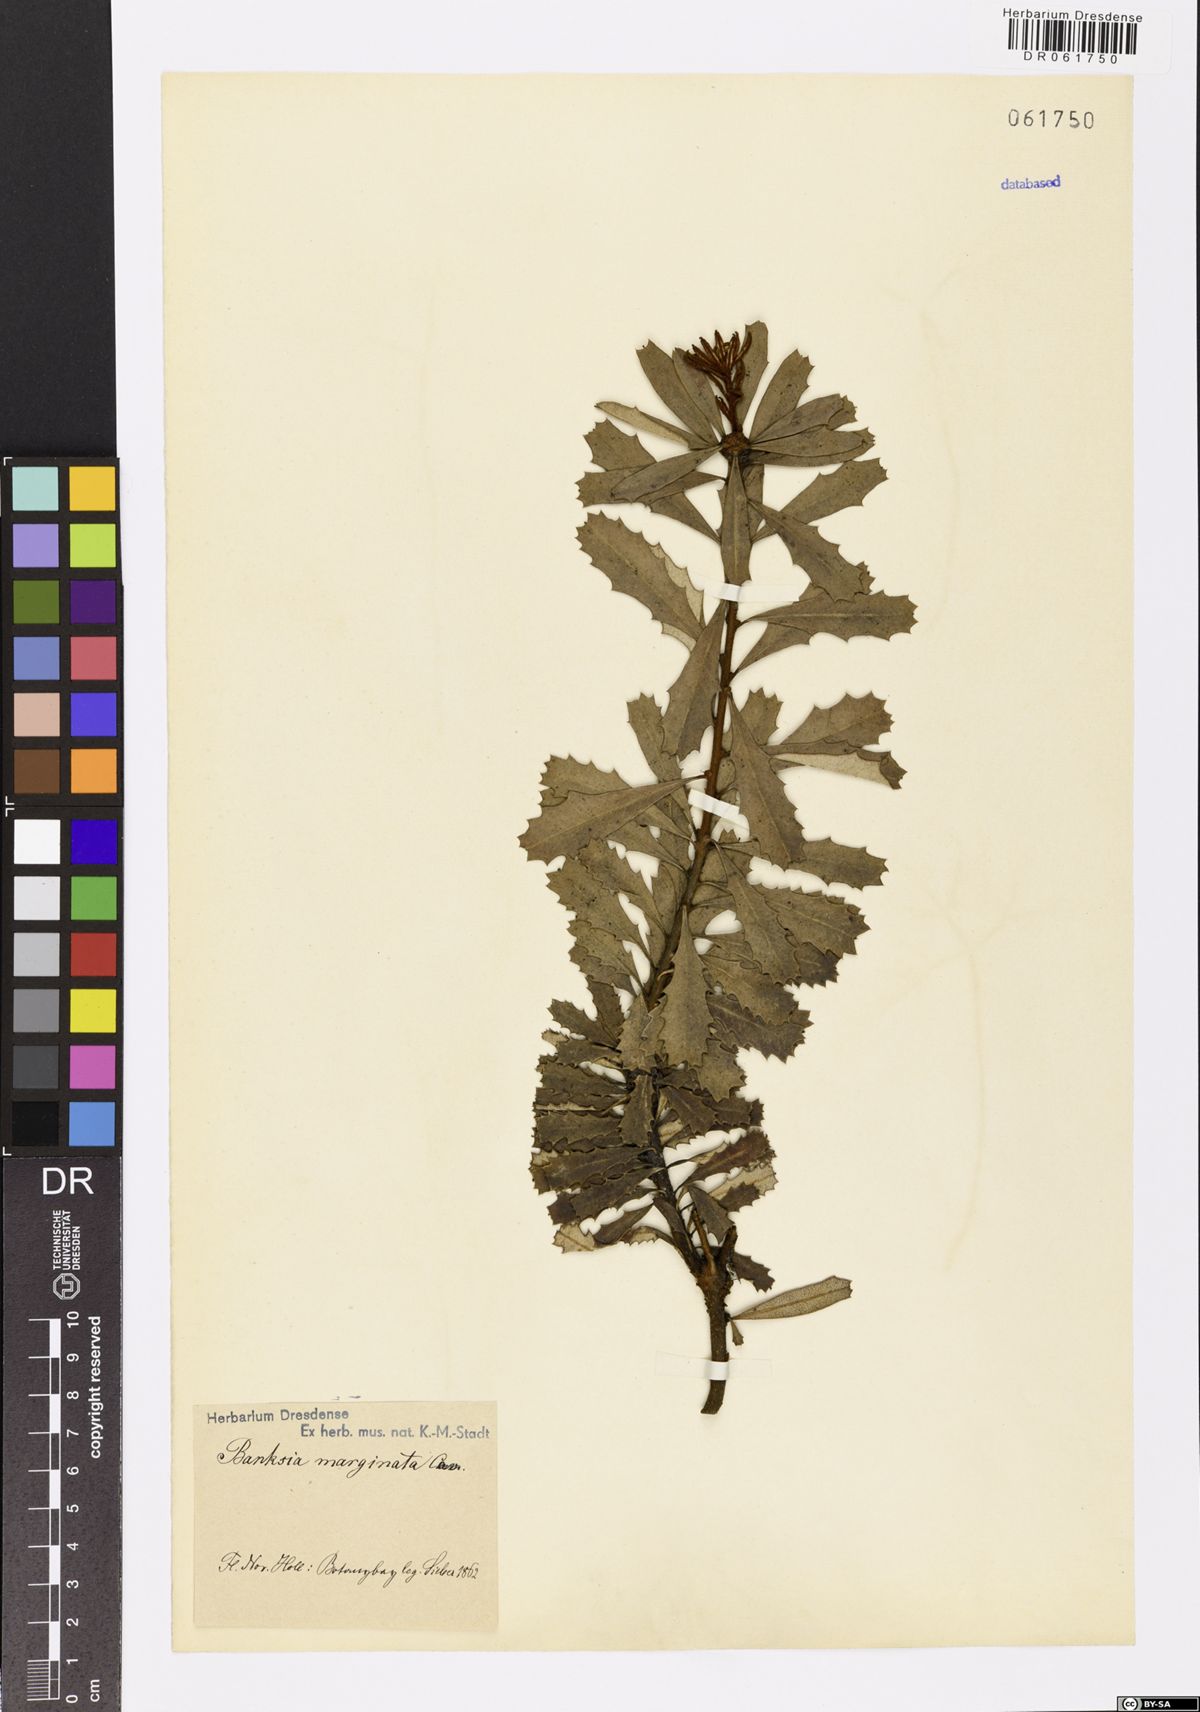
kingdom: Plantae
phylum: Tracheophyta
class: Magnoliopsida
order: Proteales
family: Proteaceae
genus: Banksia
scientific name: Banksia marginata
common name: Silver banksia
